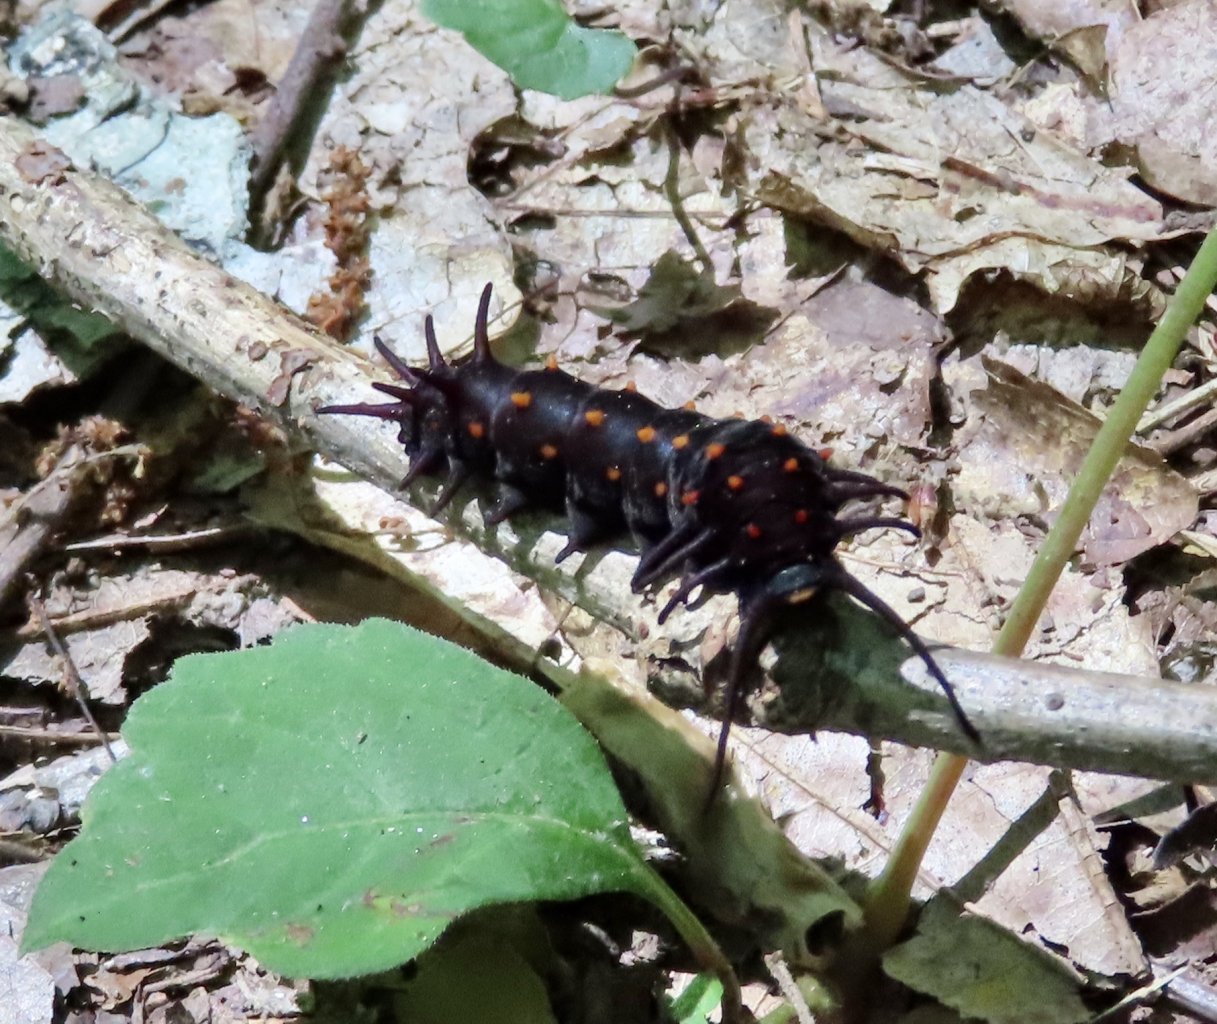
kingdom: Animalia
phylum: Arthropoda
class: Insecta
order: Lepidoptera
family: Papilionidae
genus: Battus
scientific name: Battus philenor
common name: Pipevine Swallowtail
